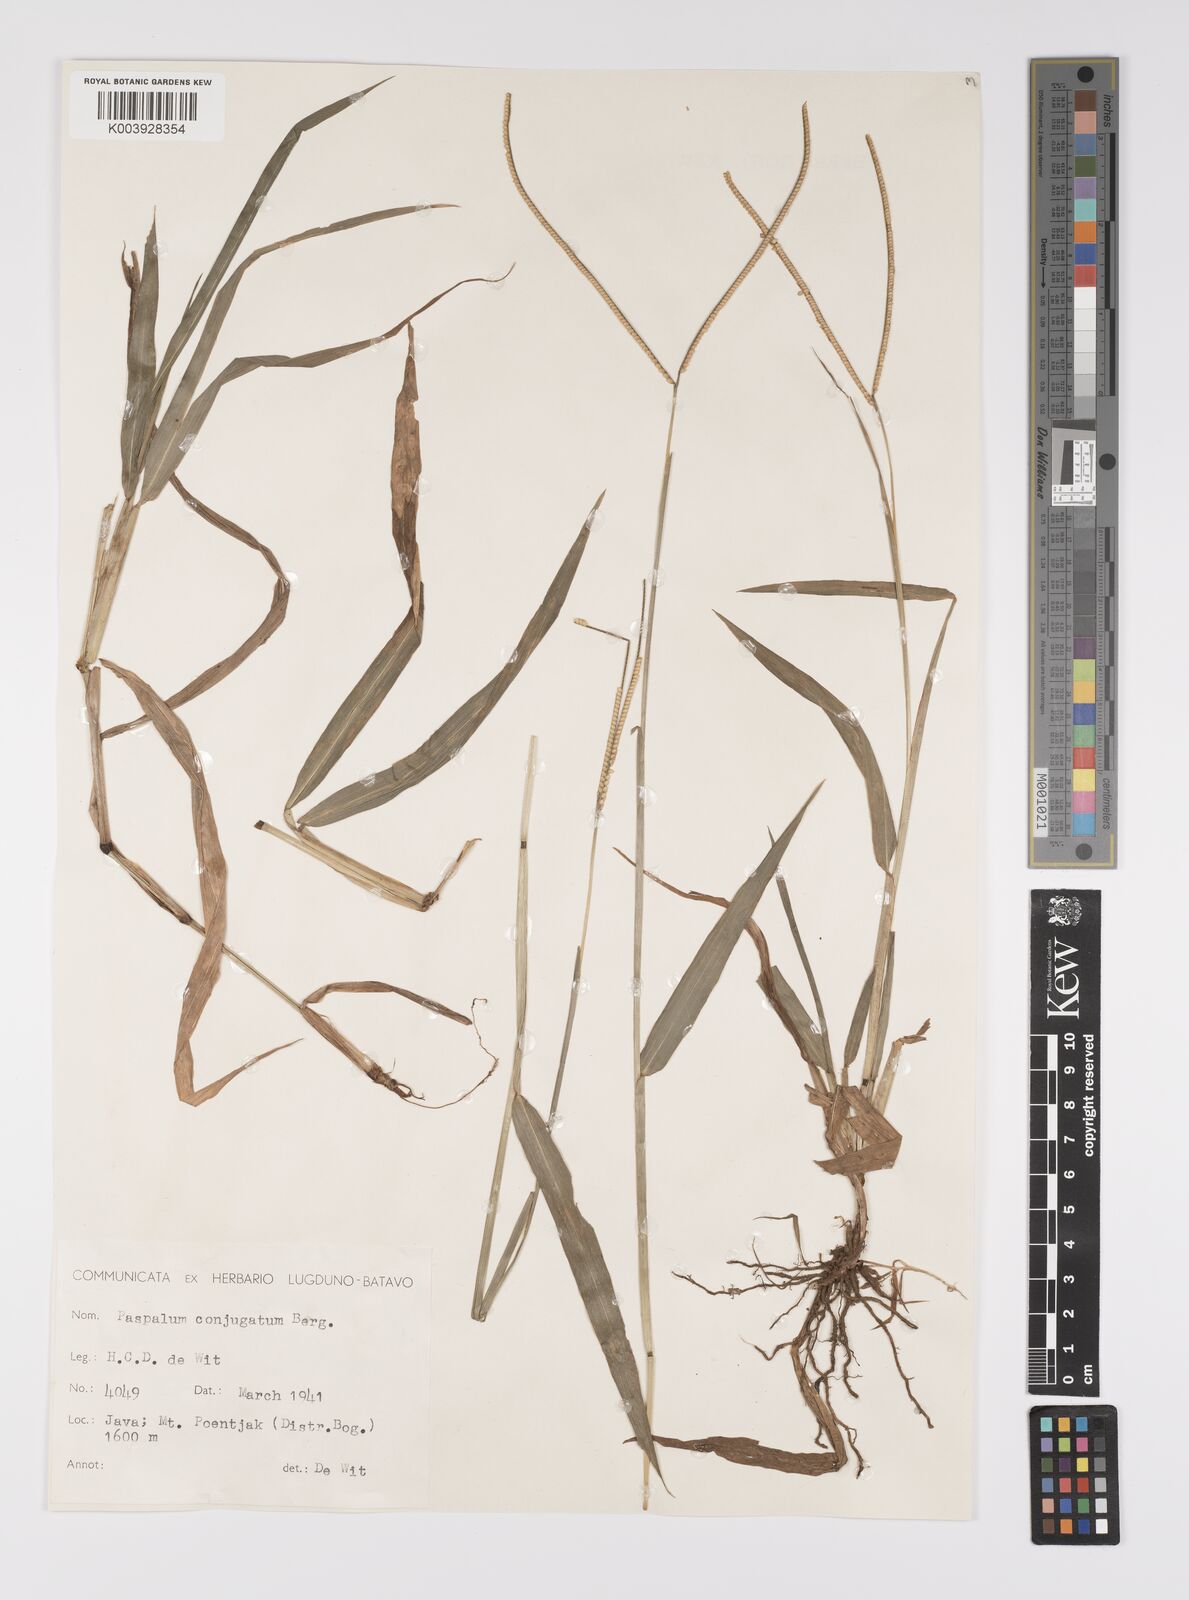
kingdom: Plantae
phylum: Tracheophyta
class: Liliopsida
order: Poales
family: Poaceae
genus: Paspalum
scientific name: Paspalum conjugatum
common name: Hilograss
